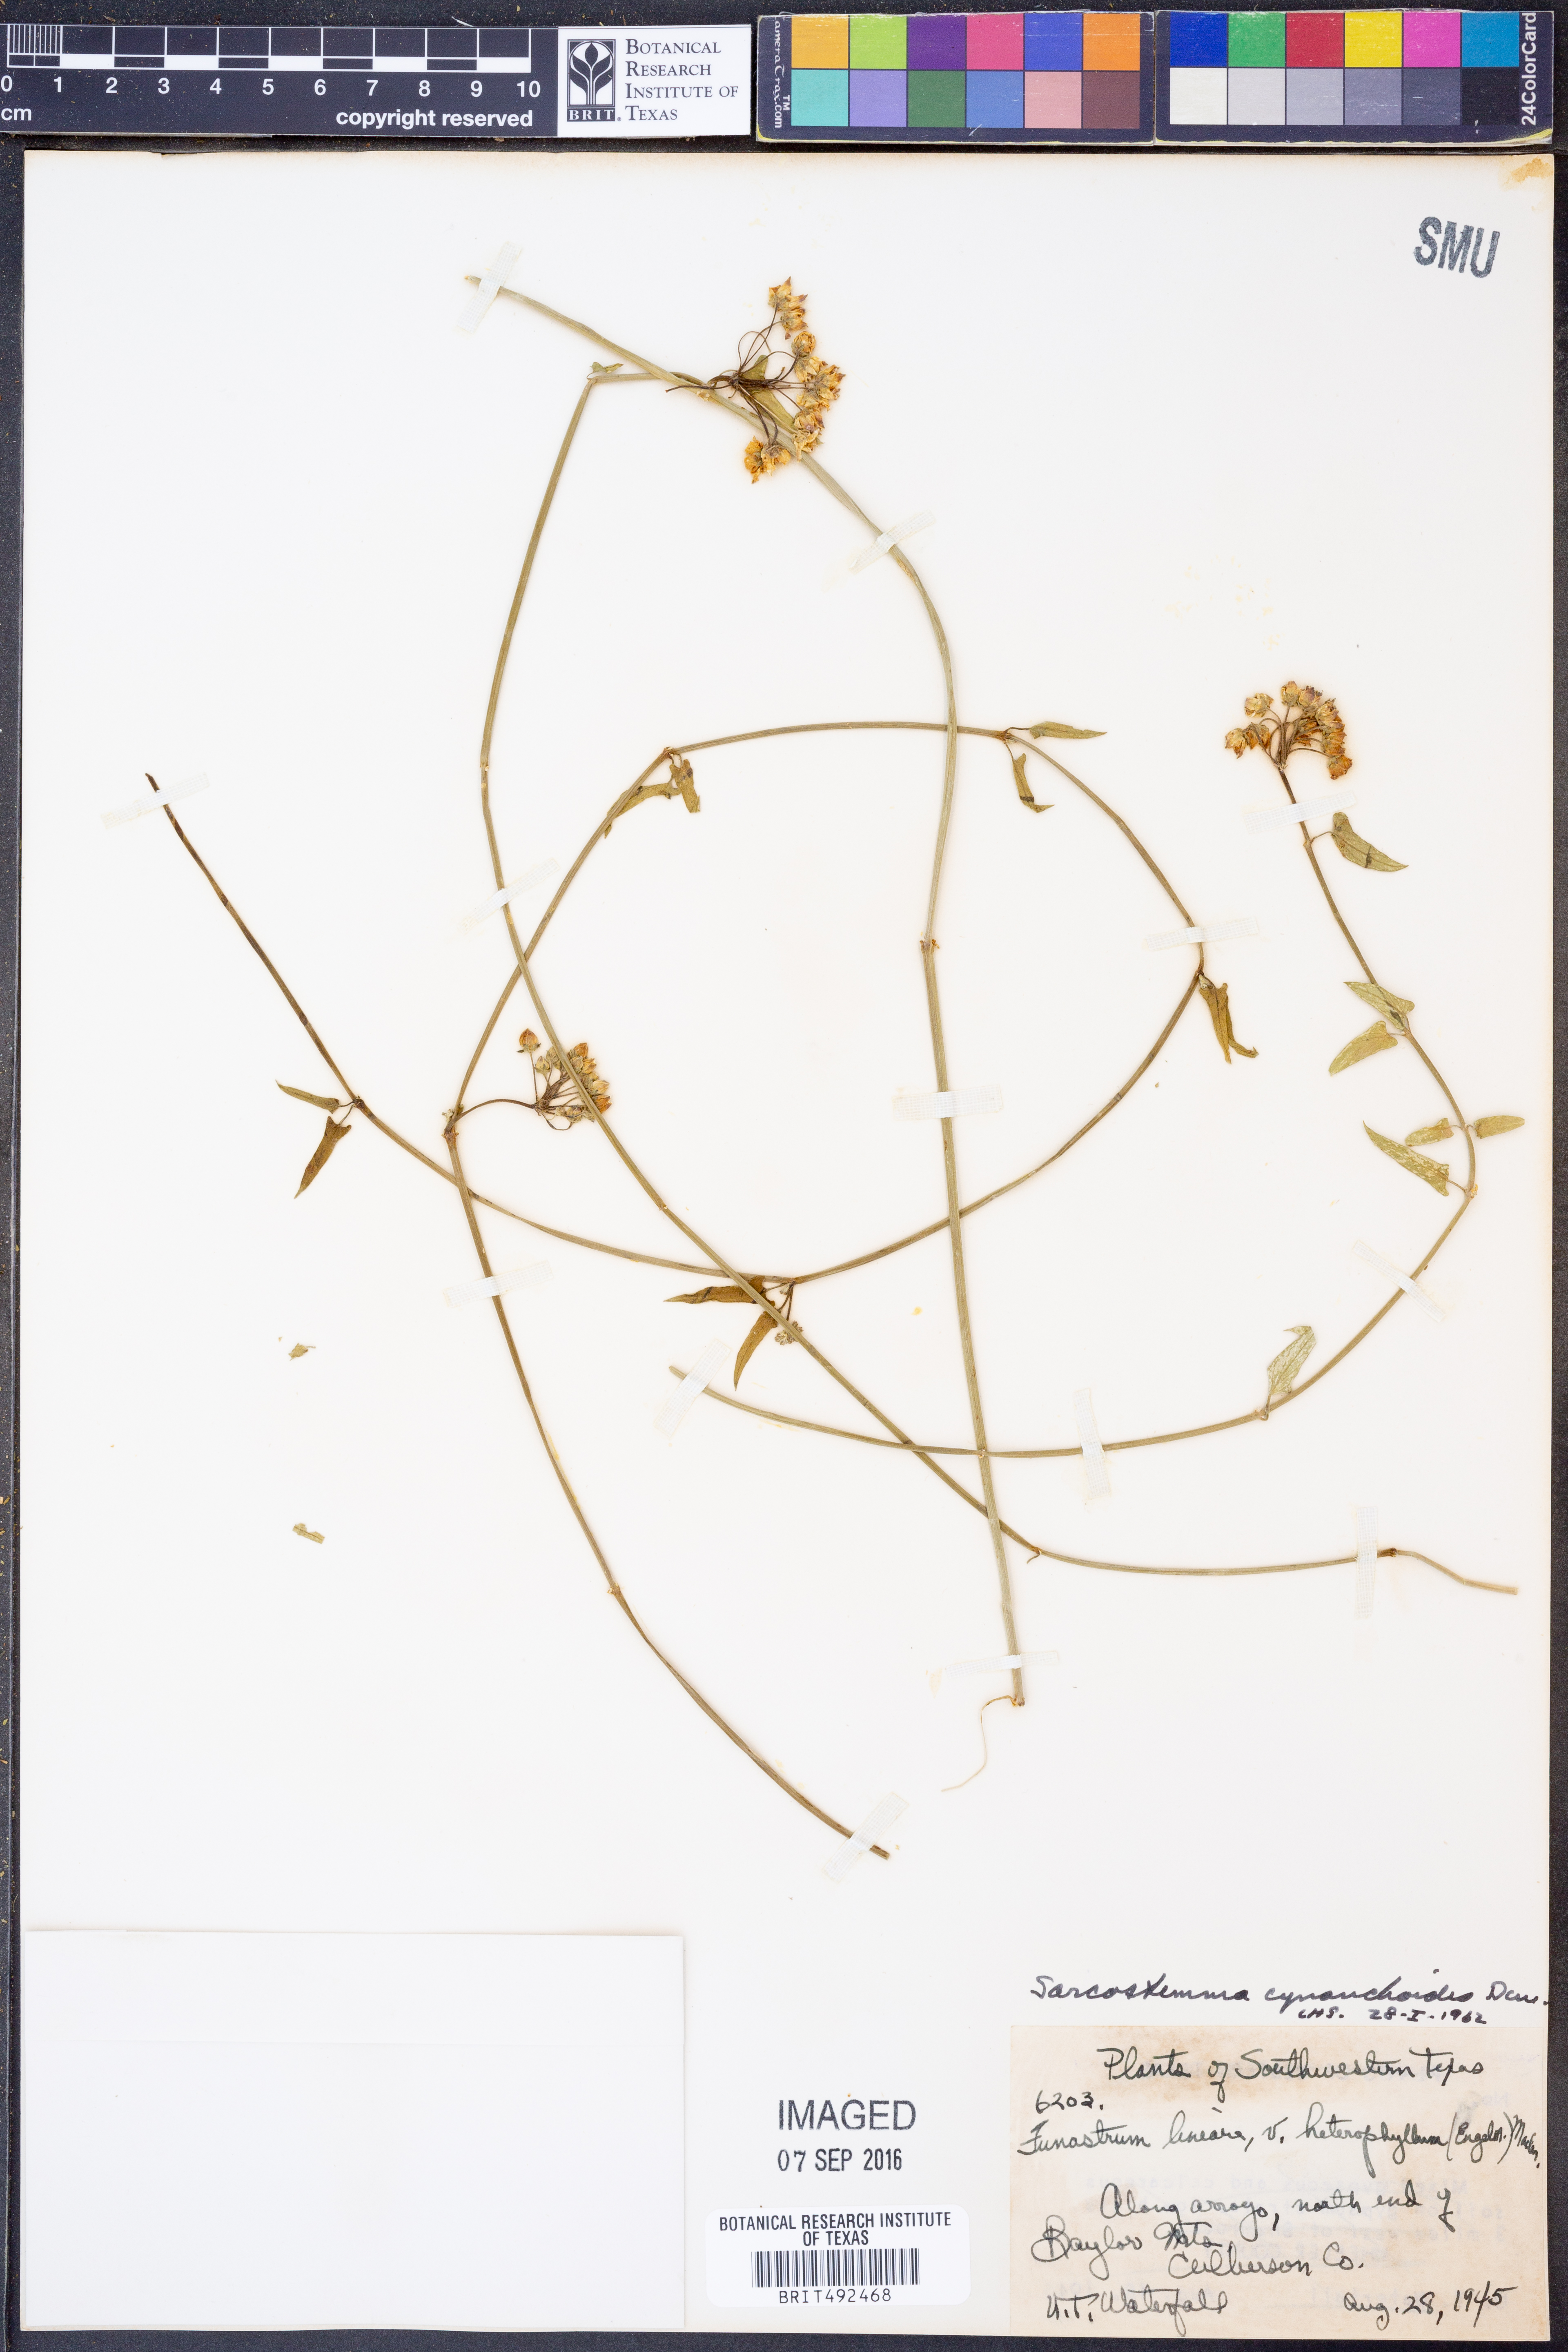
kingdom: Plantae
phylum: Tracheophyta
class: Magnoliopsida
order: Gentianales
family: Apocynaceae
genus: Funastrum
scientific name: Funastrum cynanchoides
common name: Climbing-milkweed
